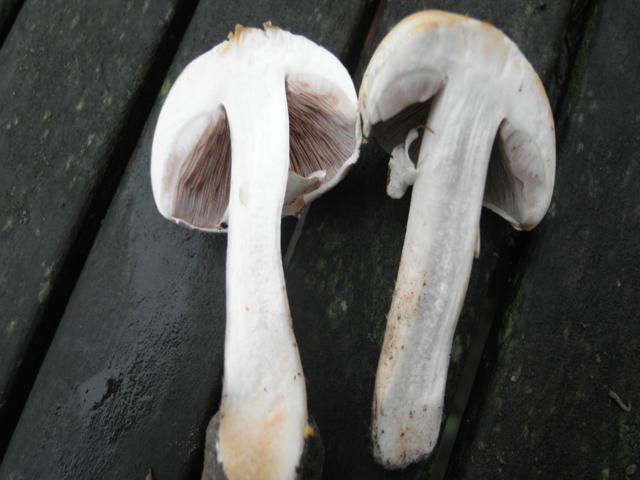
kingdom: Fungi
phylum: Basidiomycota
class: Agaricomycetes
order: Agaricales
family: Agaricaceae
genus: Agaricus
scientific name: Agaricus depauperatus
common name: finskællet champignon
